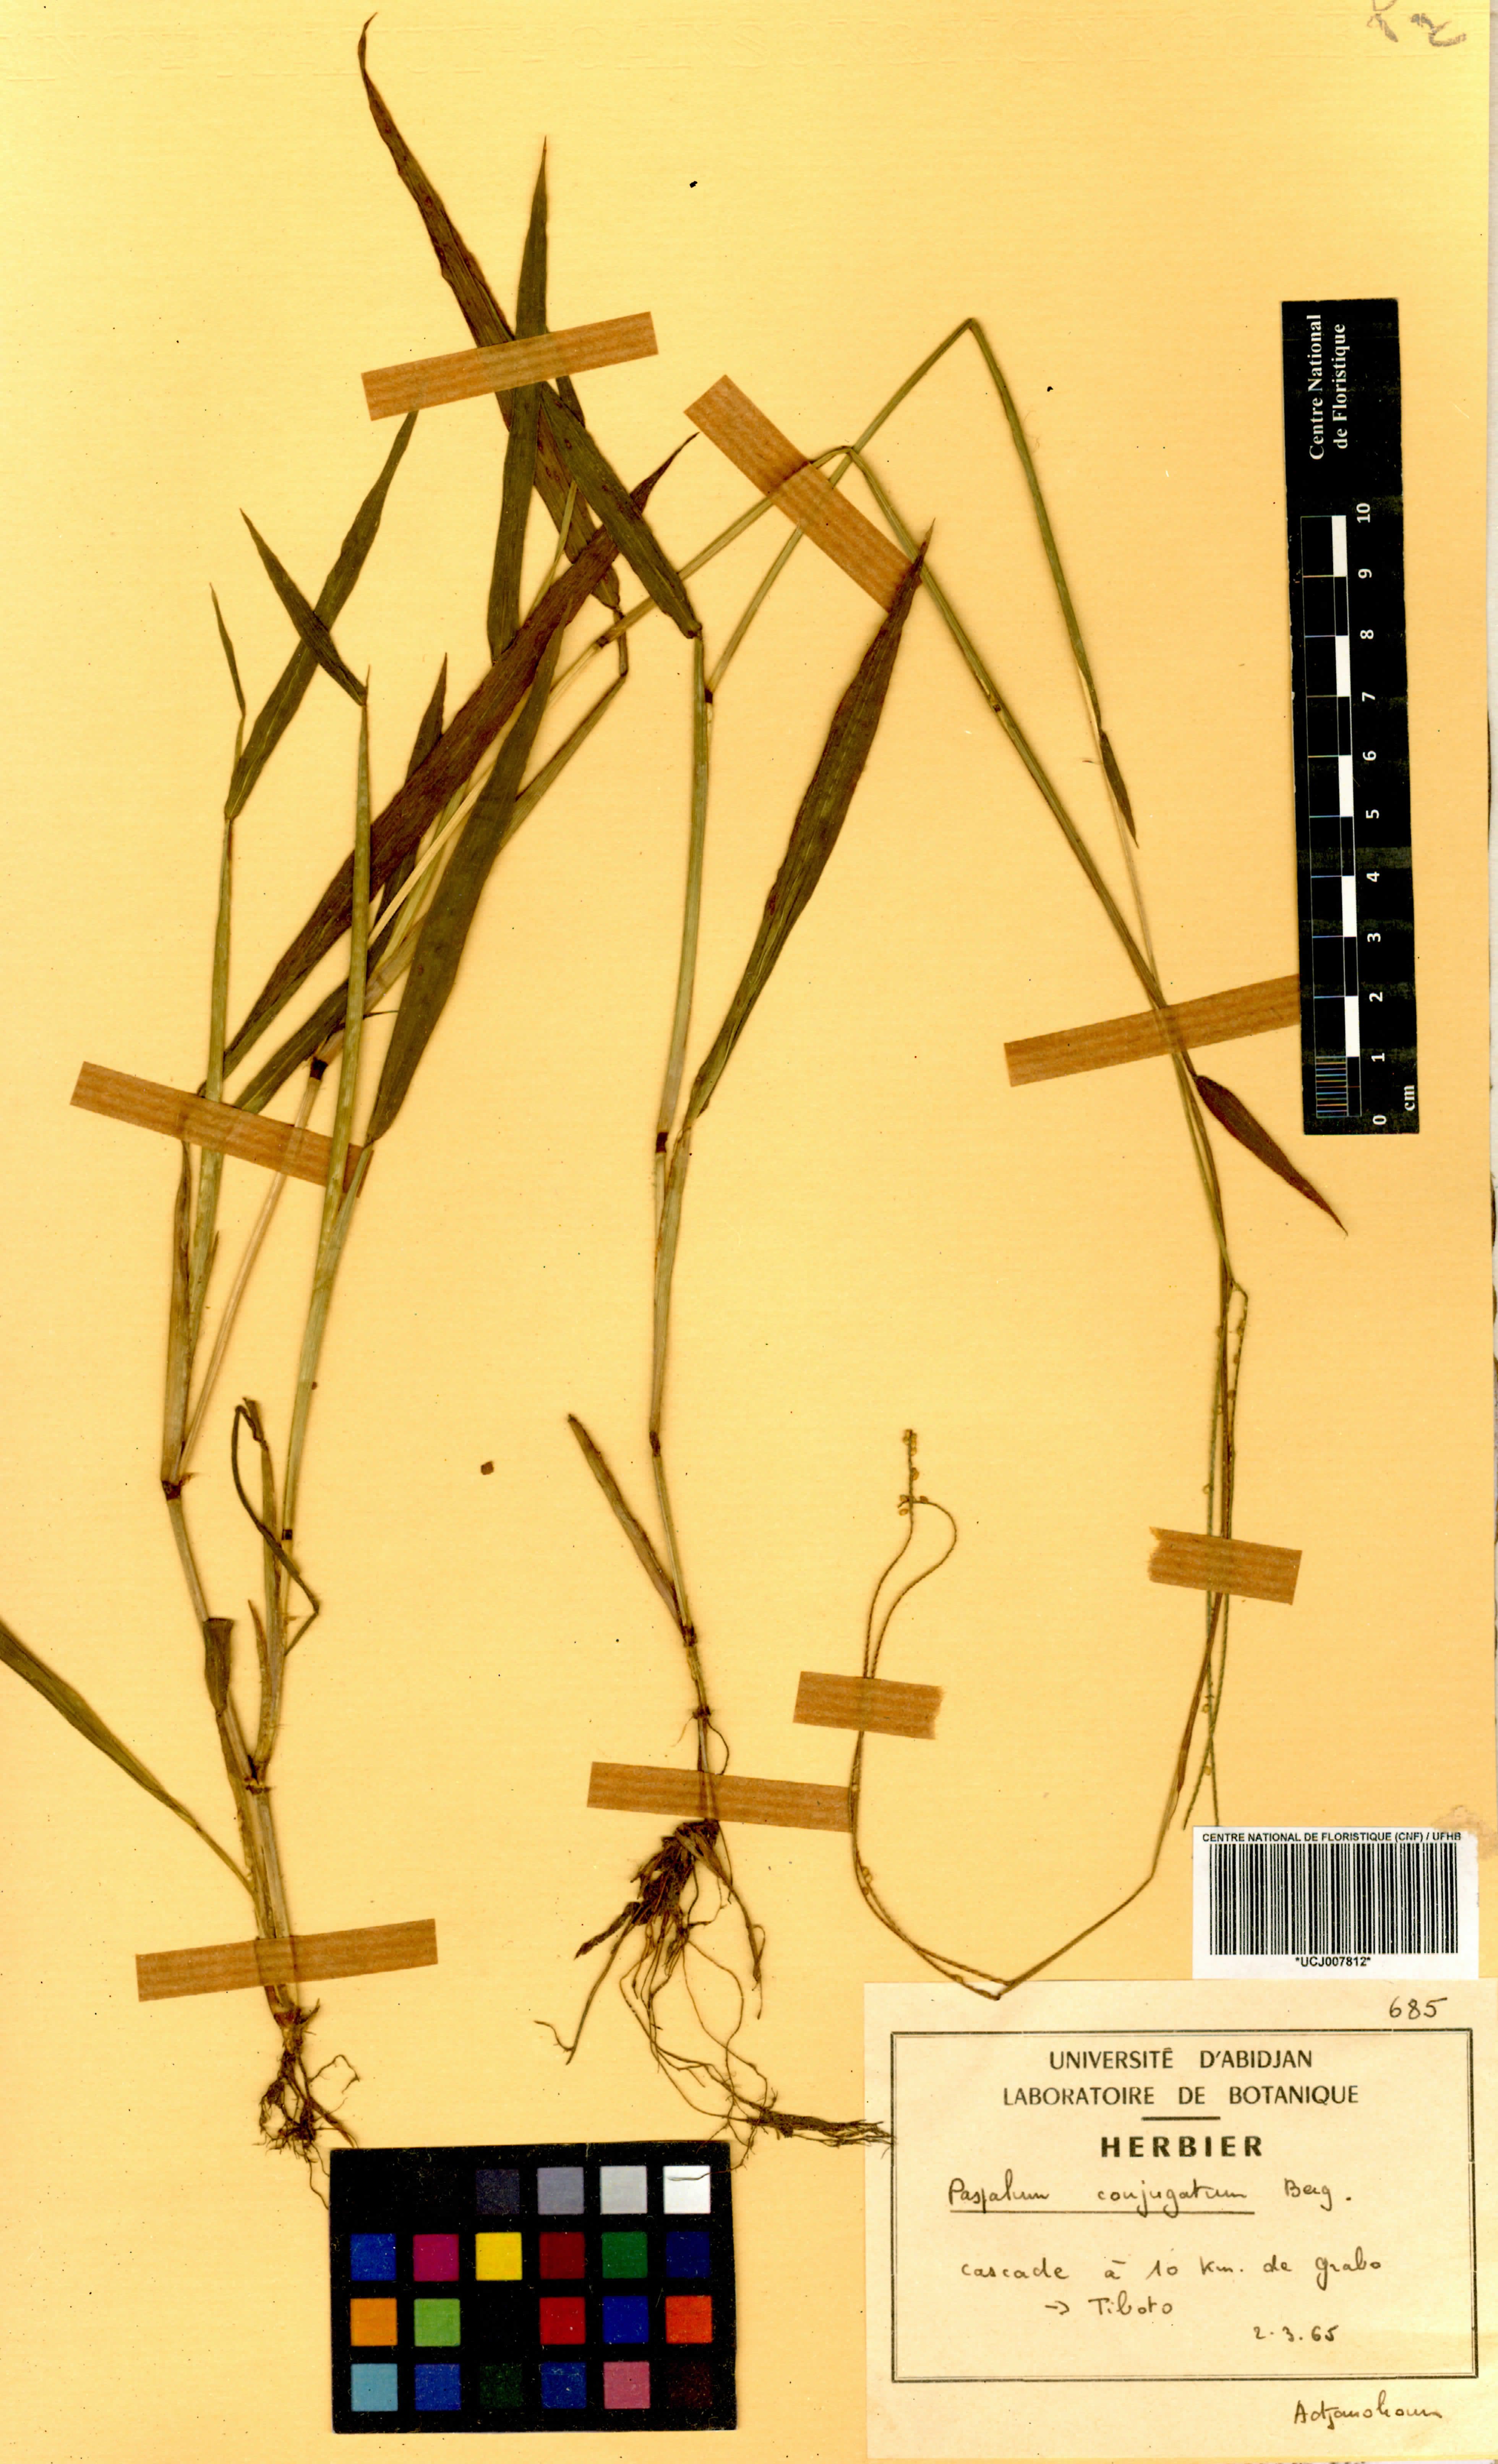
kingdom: Plantae
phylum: Tracheophyta
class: Liliopsida
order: Poales
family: Poaceae
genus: Paspalum
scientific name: Paspalum conjugatum
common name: Hilograss
